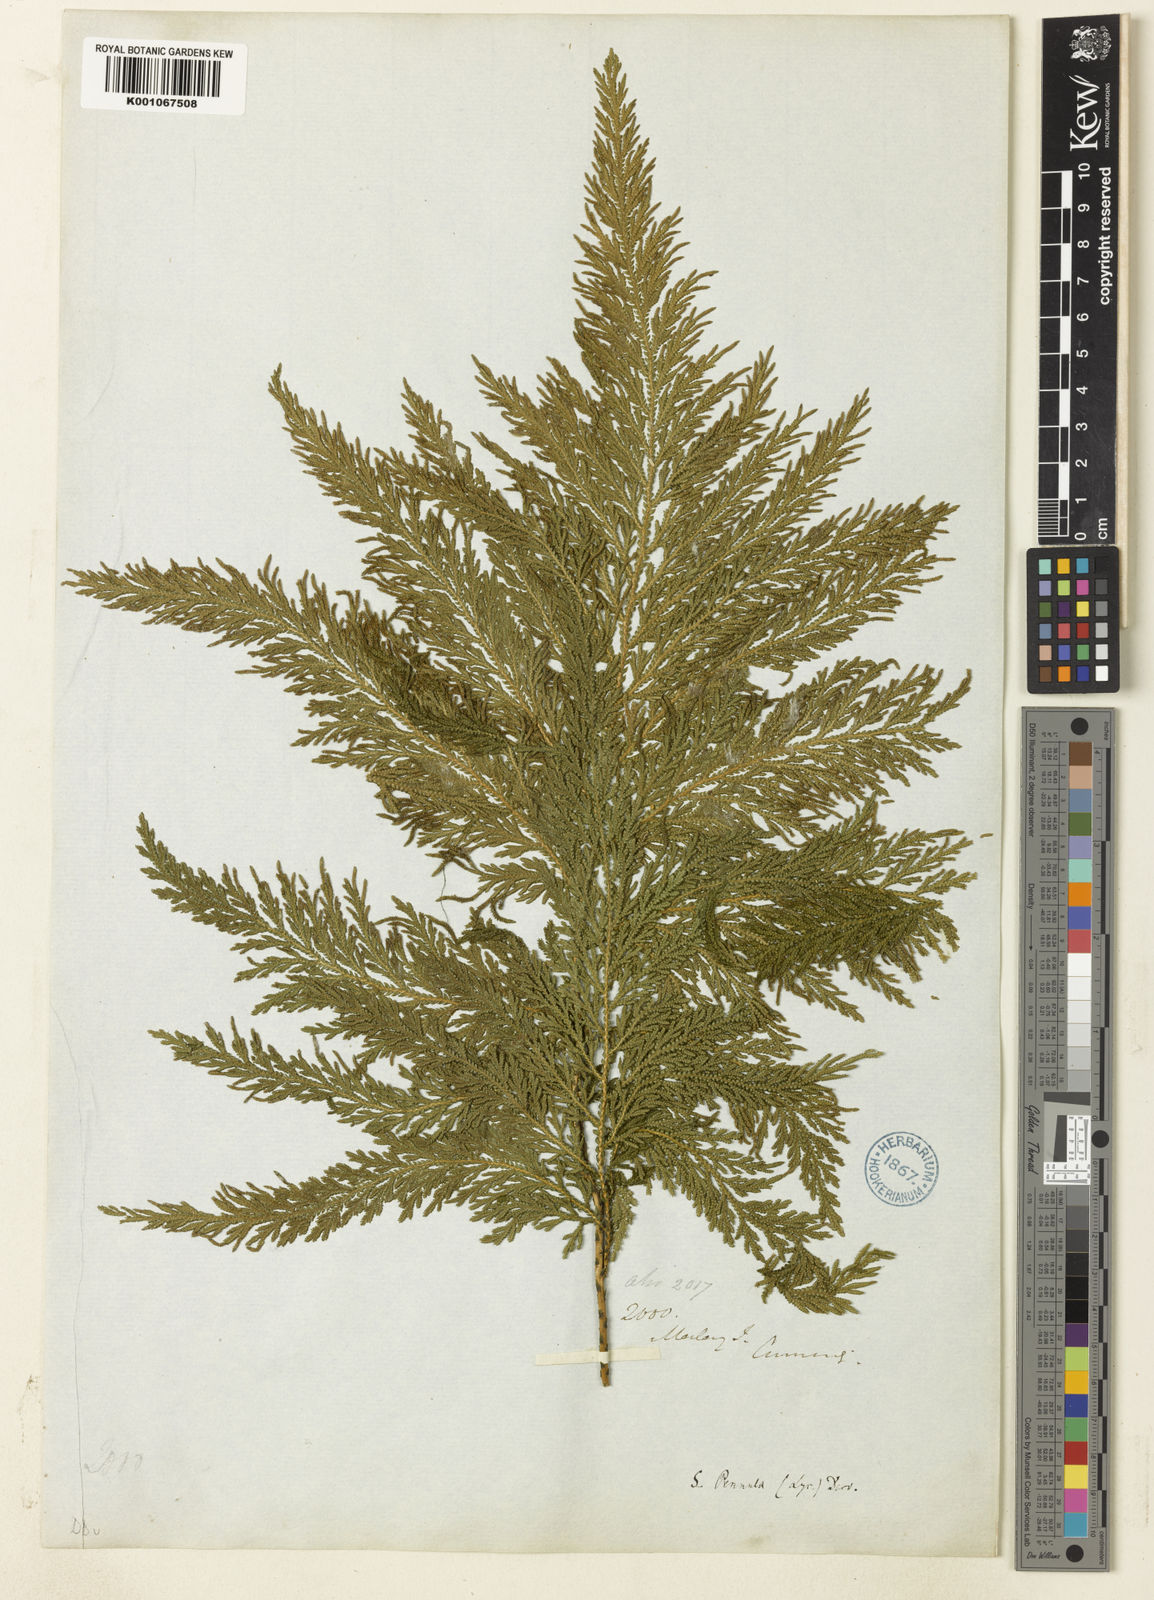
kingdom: Plantae
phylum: Tracheophyta
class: Lycopodiopsida
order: Selaginellales
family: Selaginellaceae
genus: Selaginella
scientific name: Selaginella involvens
